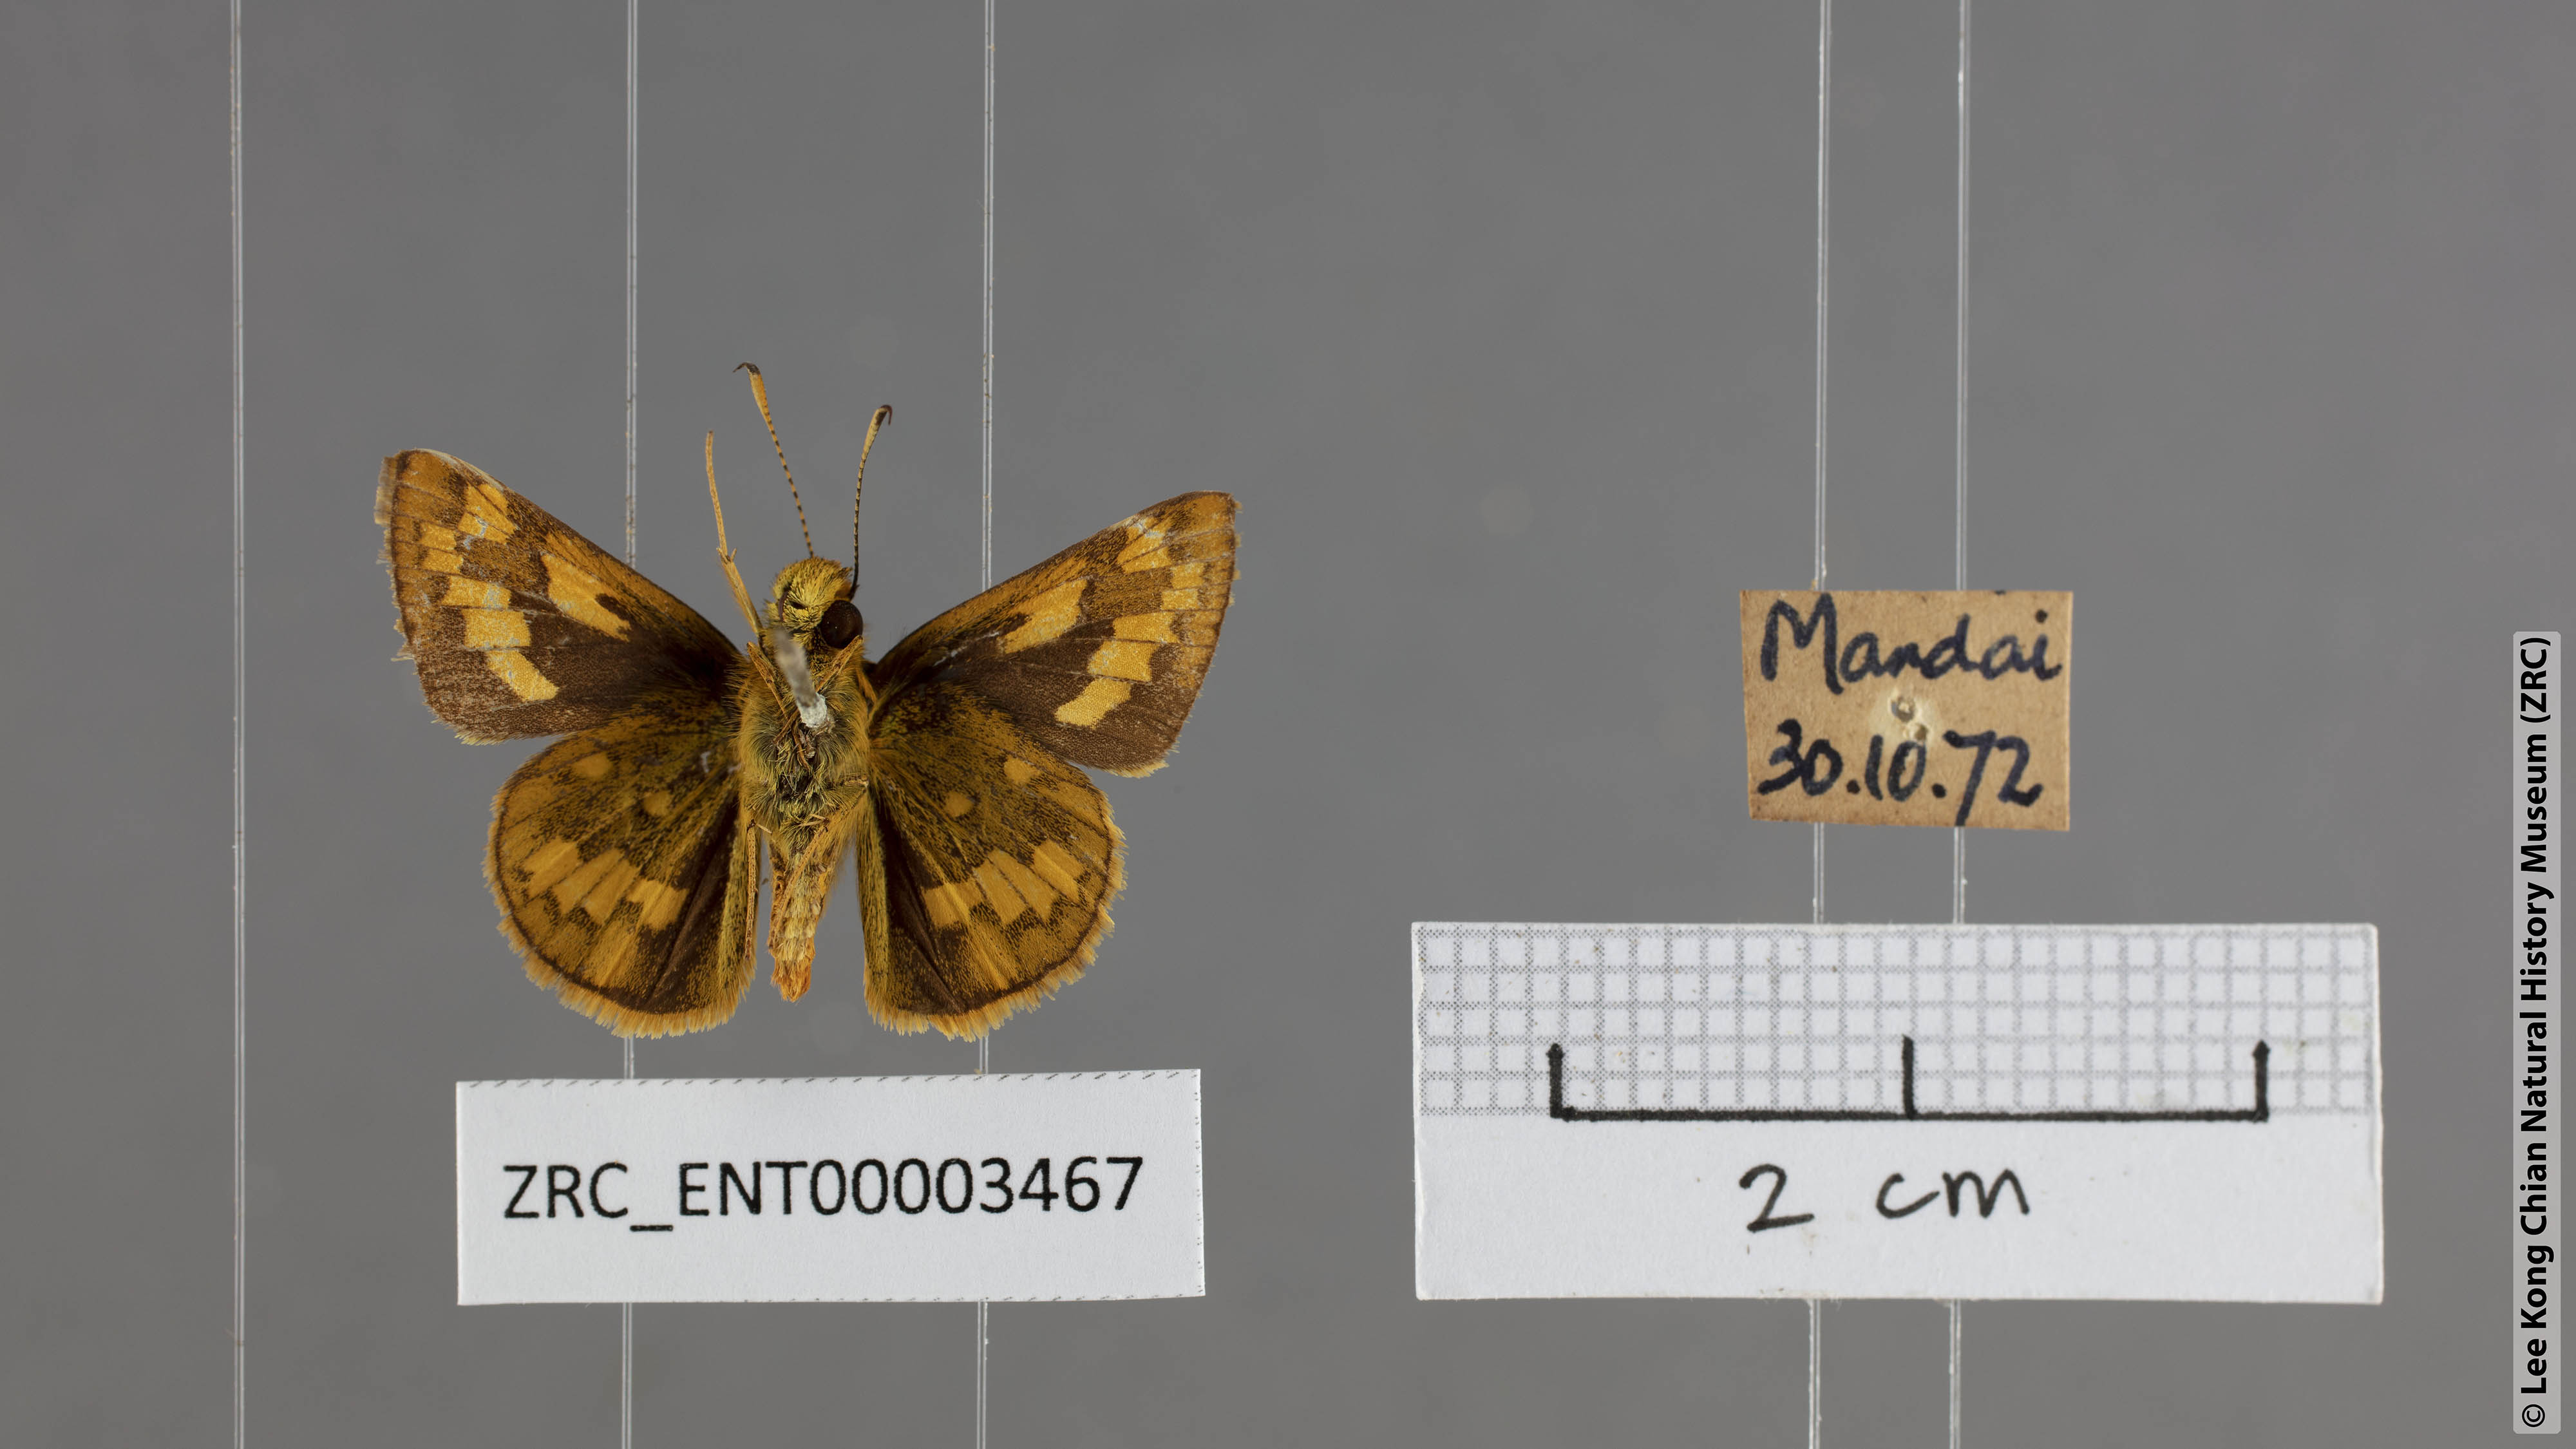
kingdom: Animalia
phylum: Arthropoda
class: Insecta
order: Lepidoptera
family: Hesperiidae
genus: Potanthus
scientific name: Potanthus juno
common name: Overlapped dart
